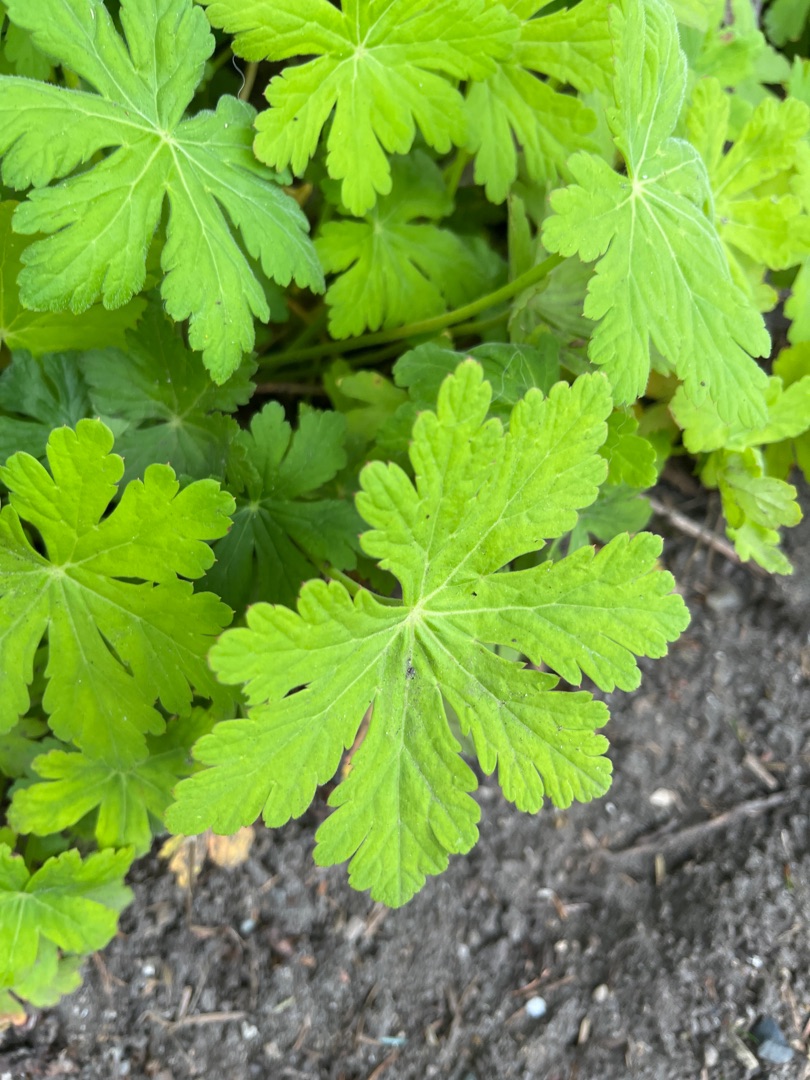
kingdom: Plantae
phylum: Tracheophyta
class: Magnoliopsida
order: Geraniales
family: Geraniaceae
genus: Geranium
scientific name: Geranium macrorrhizum
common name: Storrodet storkenæb
